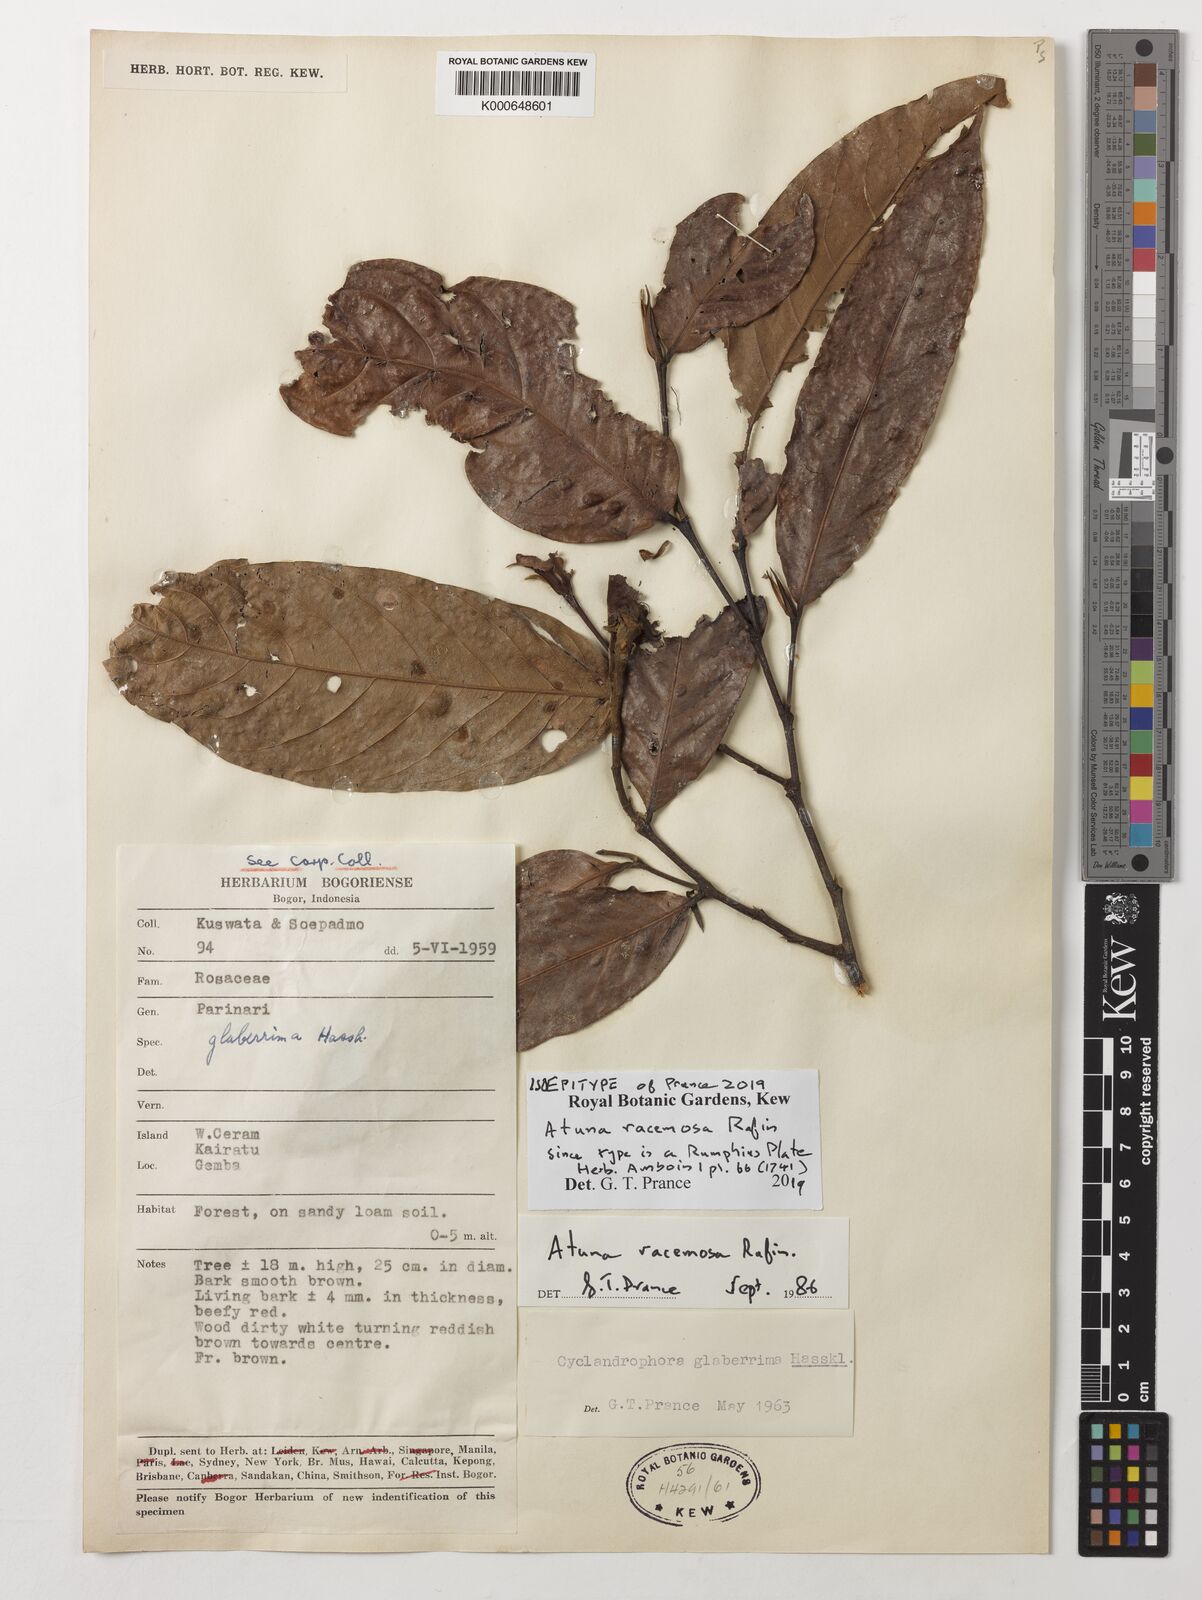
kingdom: Plantae
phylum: Tracheophyta
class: Magnoliopsida
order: Malpighiales
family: Chrysobalanaceae
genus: Atuna
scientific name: Atuna excelsa
